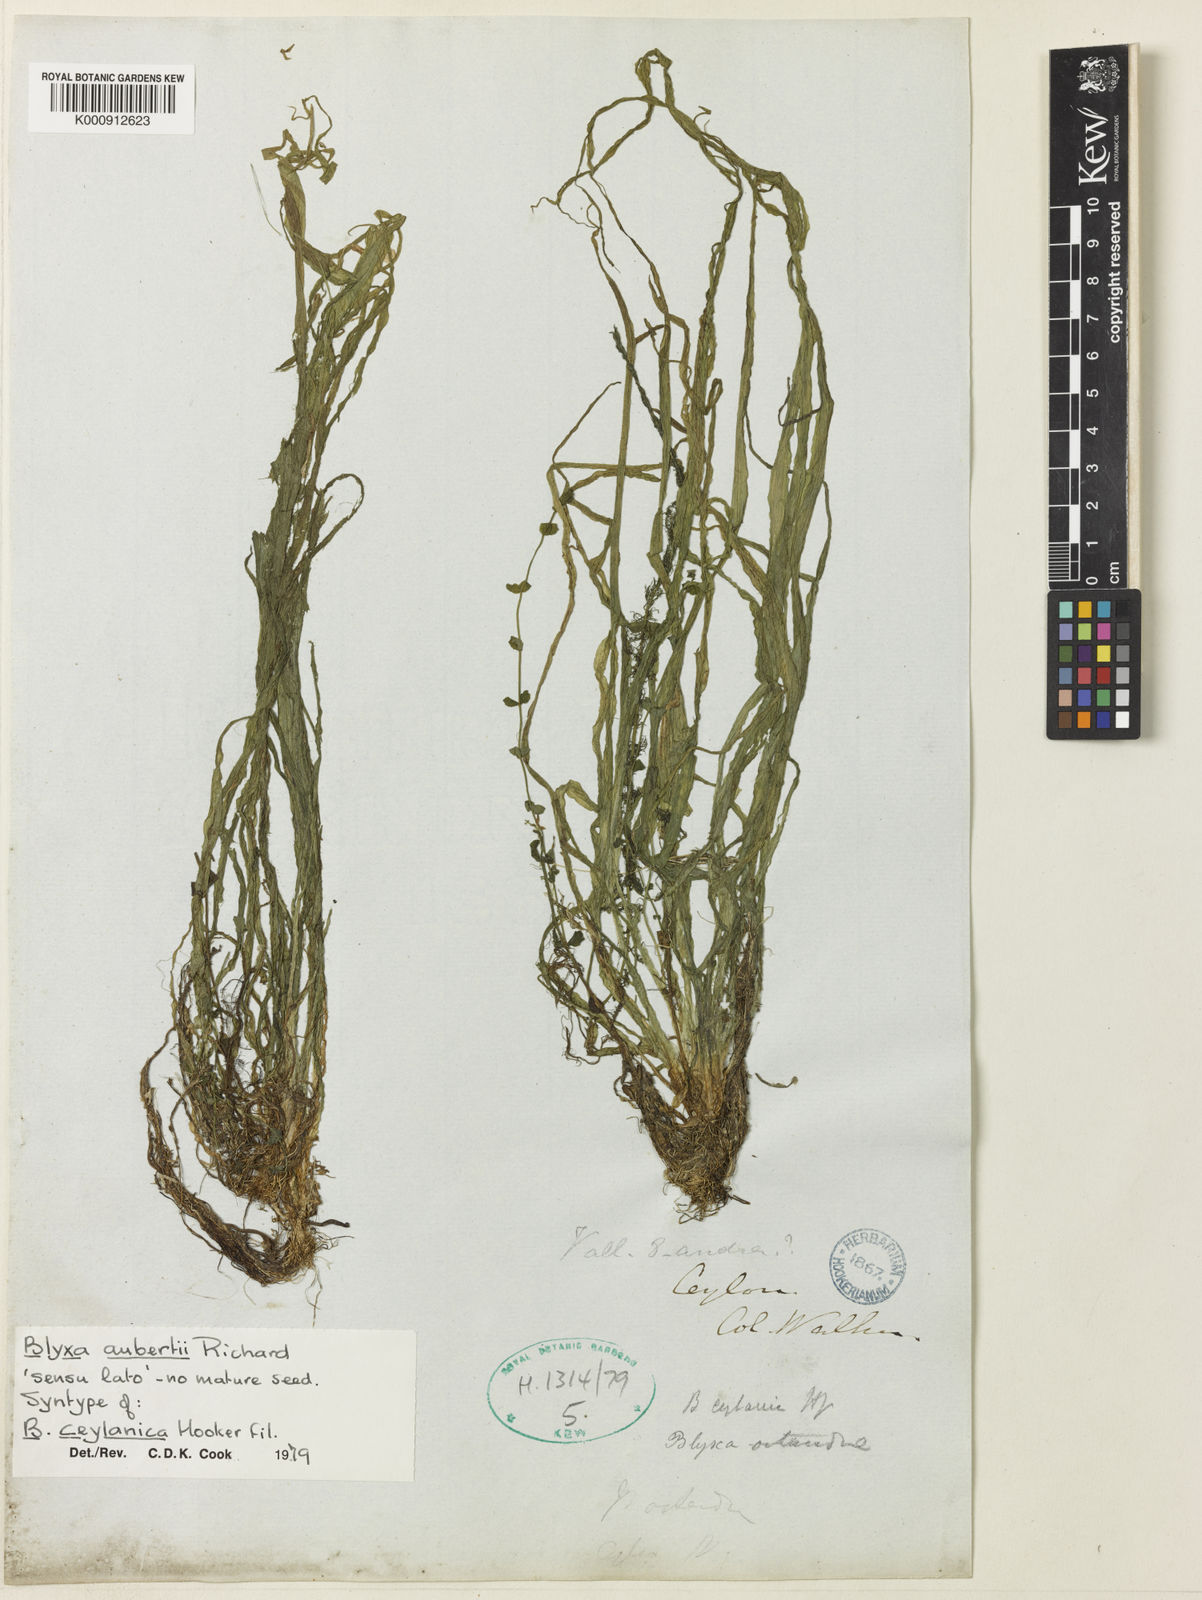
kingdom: Plantae
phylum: Tracheophyta
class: Liliopsida
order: Alismatales
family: Hydrocharitaceae
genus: Blyxa
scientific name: Blyxa
